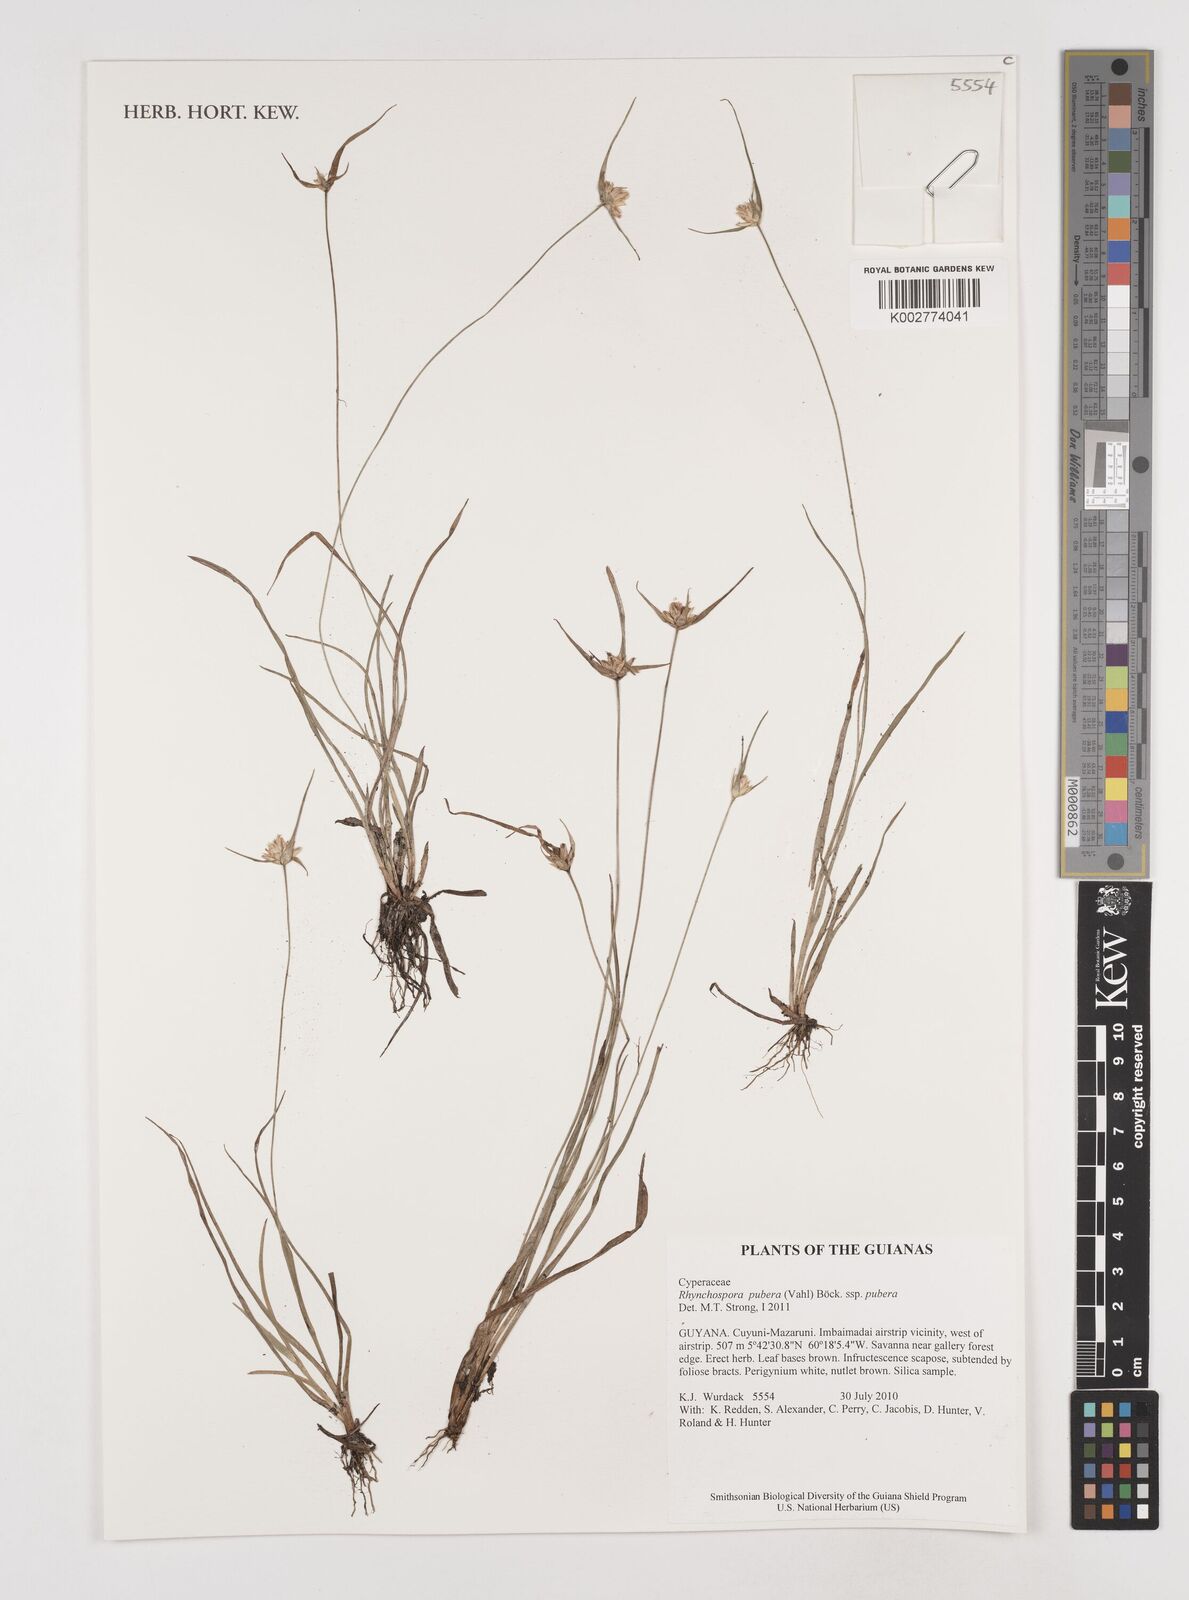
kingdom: Plantae
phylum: Tracheophyta
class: Liliopsida
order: Poales
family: Cyperaceae
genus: Rhynchospora
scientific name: Rhynchospora pubera
